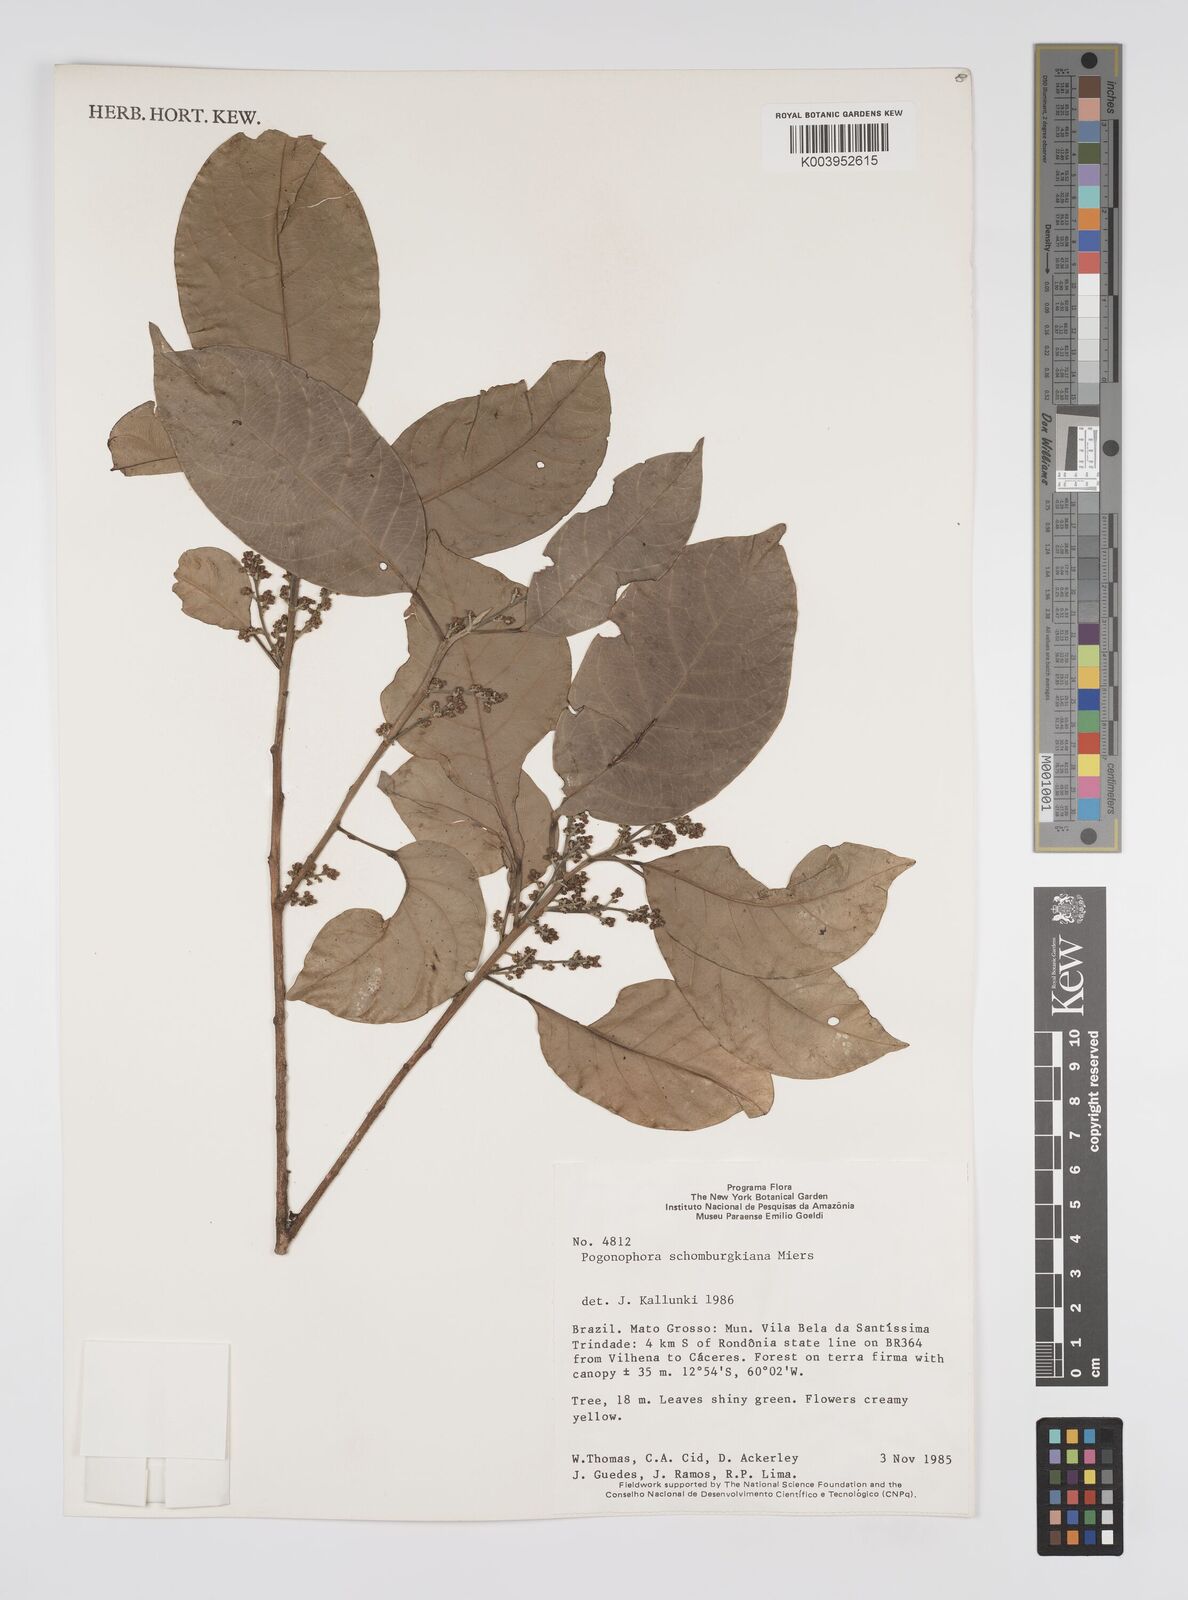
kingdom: Plantae
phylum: Tracheophyta
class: Magnoliopsida
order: Malpighiales
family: Peraceae
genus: Pogonophora
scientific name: Pogonophora schomburgkiana
